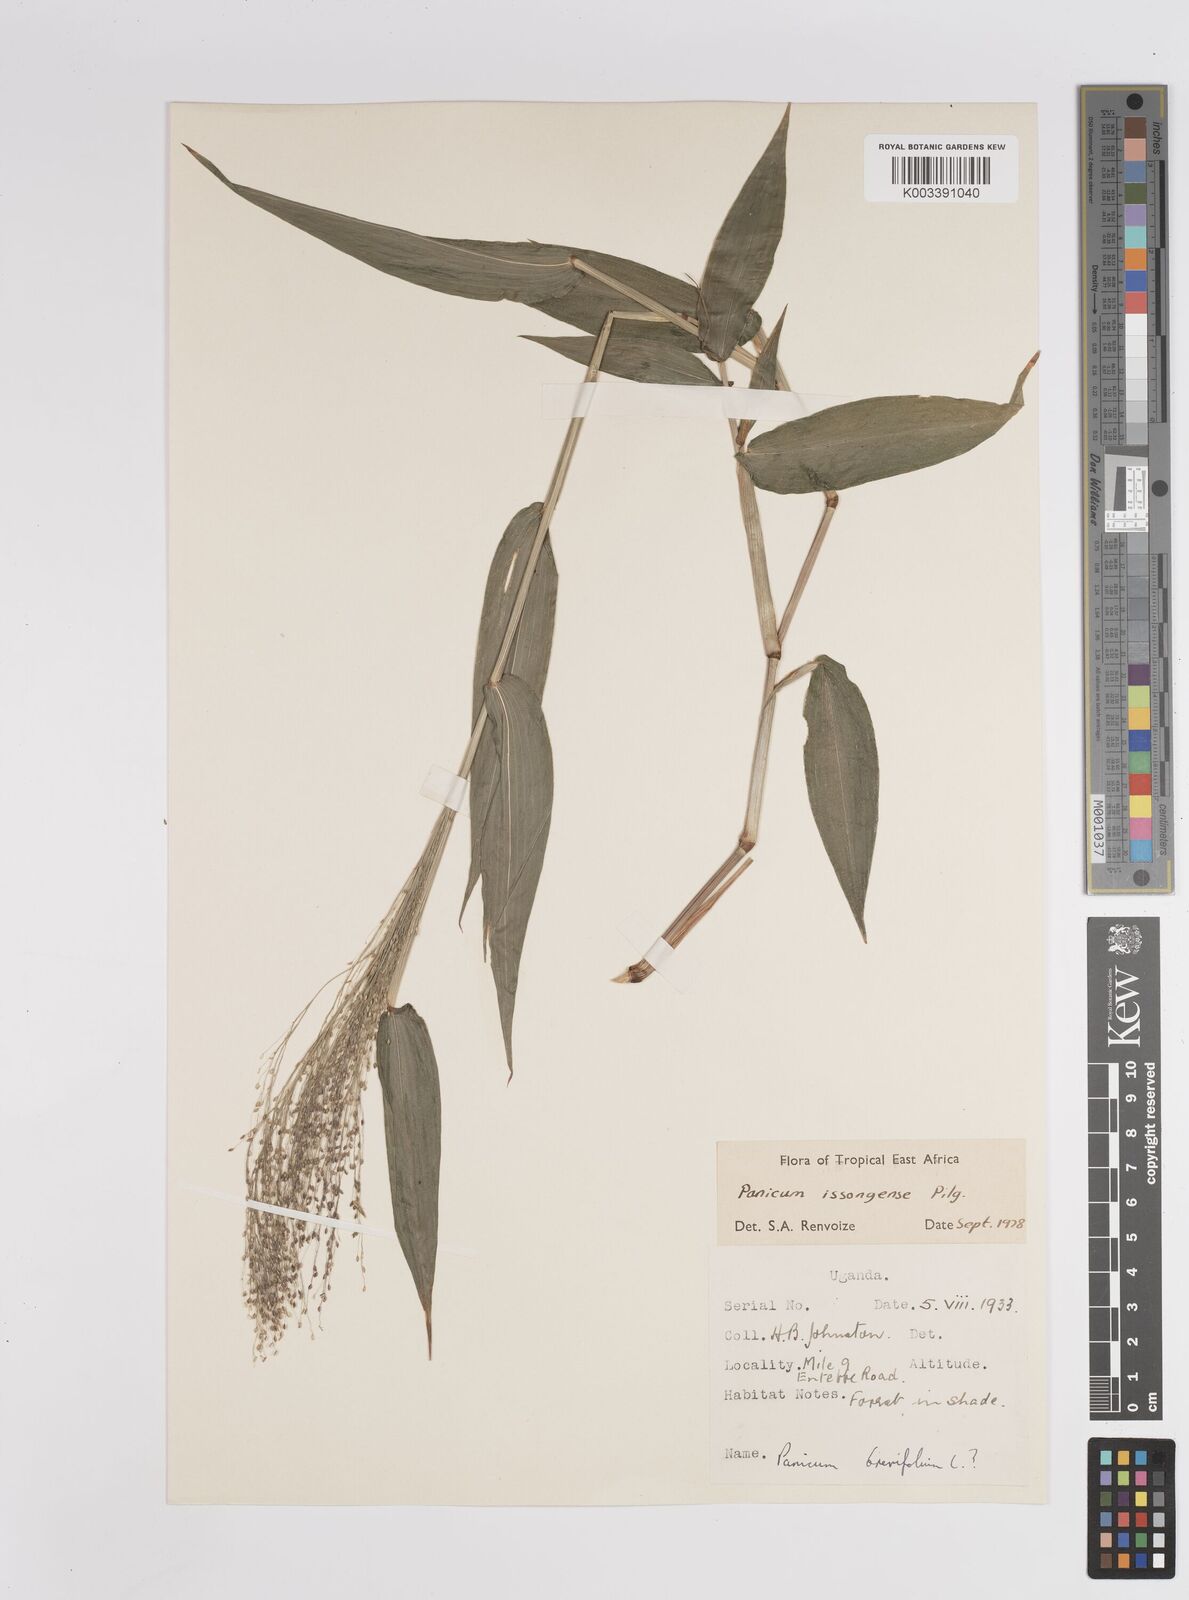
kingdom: Plantae
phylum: Tracheophyta
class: Liliopsida
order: Poales
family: Poaceae
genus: Panicum
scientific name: Panicum issongense
